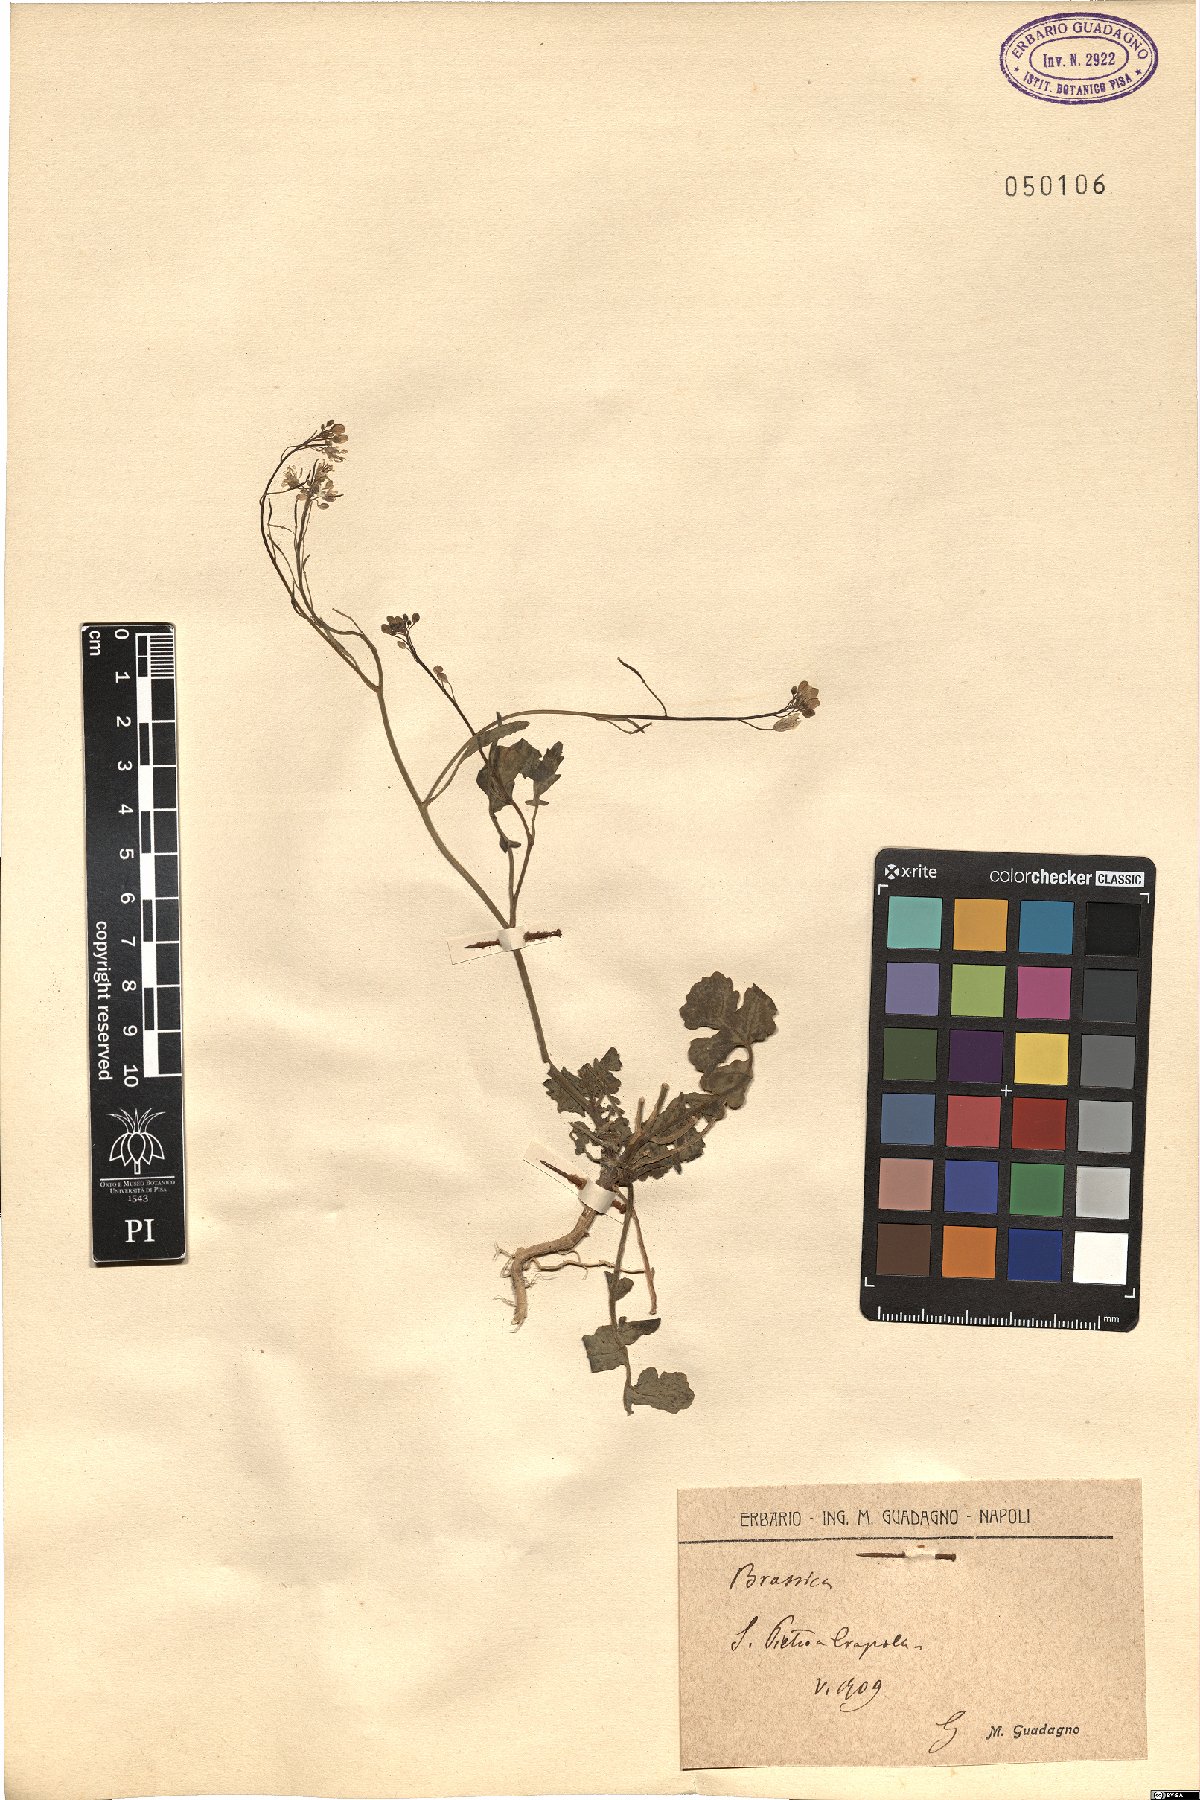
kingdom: Plantae
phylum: Tracheophyta
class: Magnoliopsida
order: Brassicales
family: Brassicaceae
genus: Brassica
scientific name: Brassica
